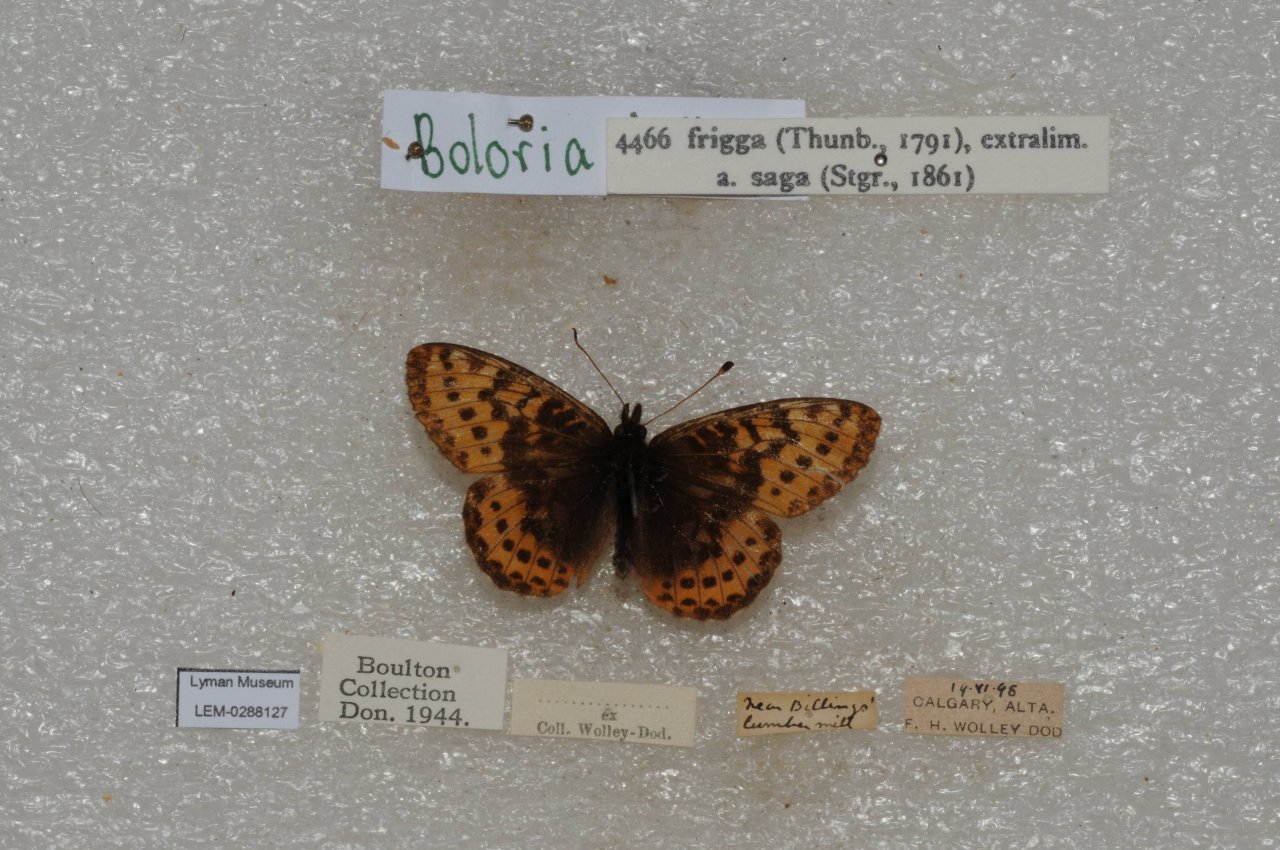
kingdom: Animalia
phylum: Arthropoda
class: Insecta
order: Lepidoptera
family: Nymphalidae
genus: Boloria
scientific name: Boloria frigga
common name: Frigga Fritillary
